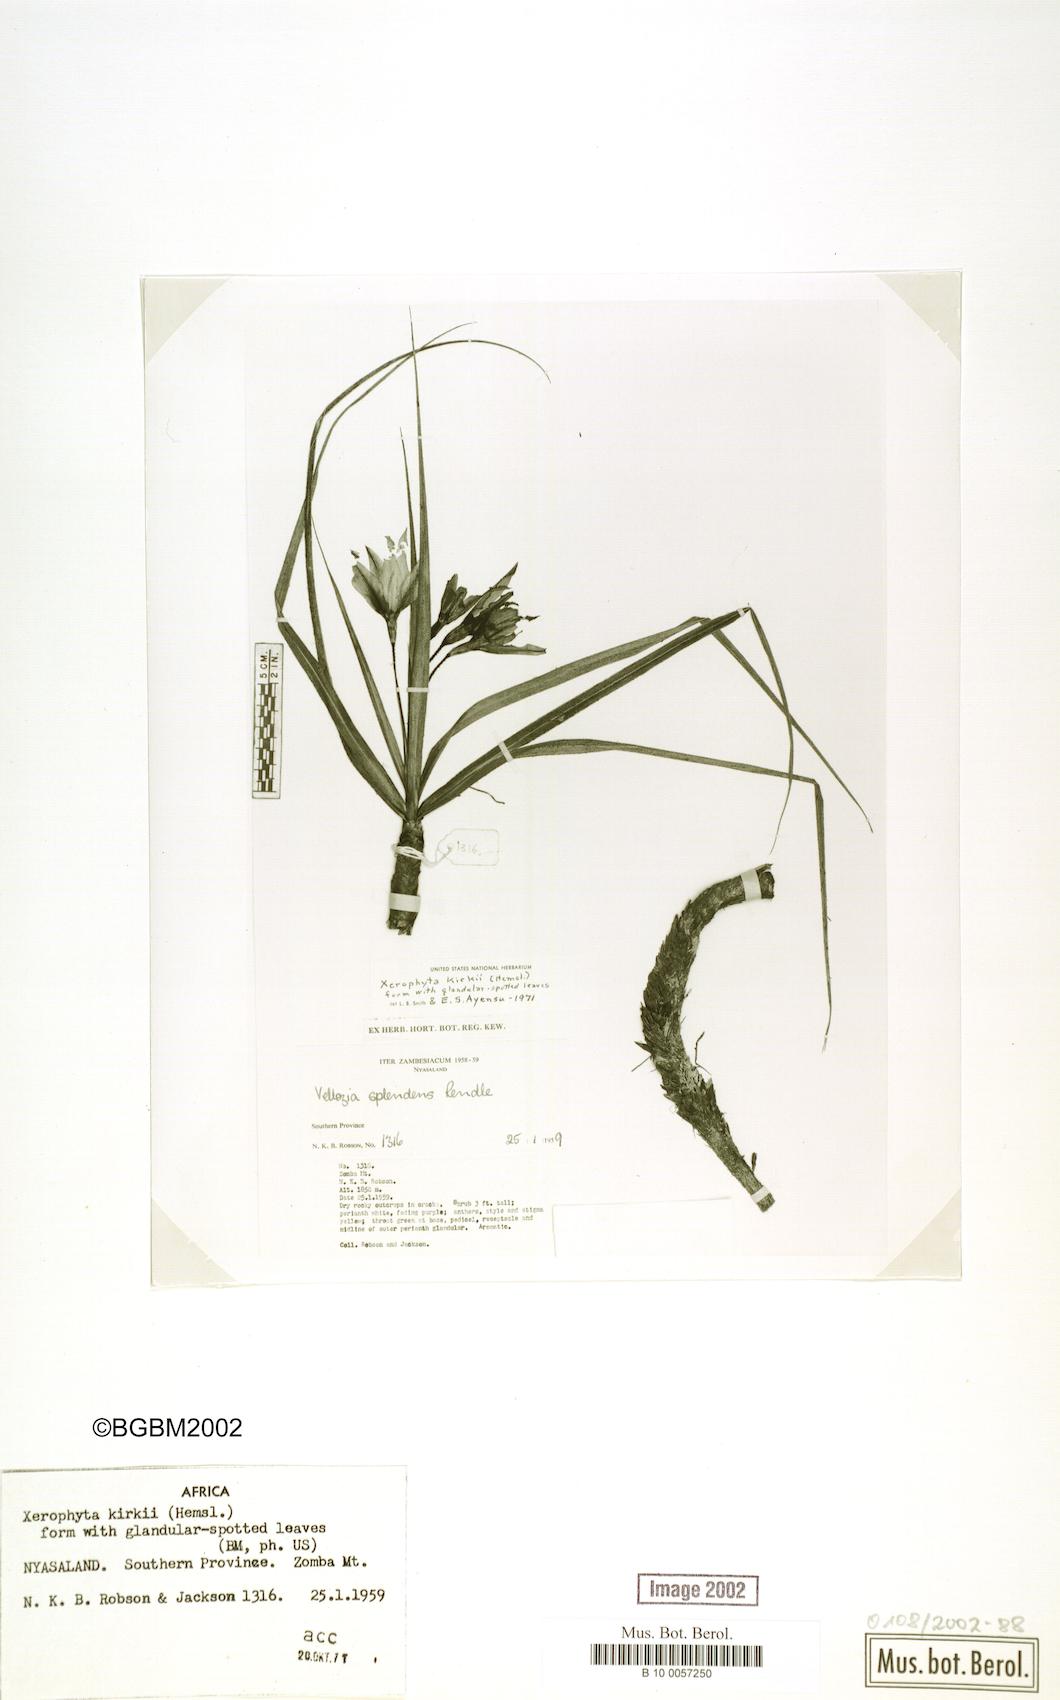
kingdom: Plantae
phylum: Tracheophyta
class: Liliopsida
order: Pandanales
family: Velloziaceae
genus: Xerophyta
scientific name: Xerophyta kirkii
